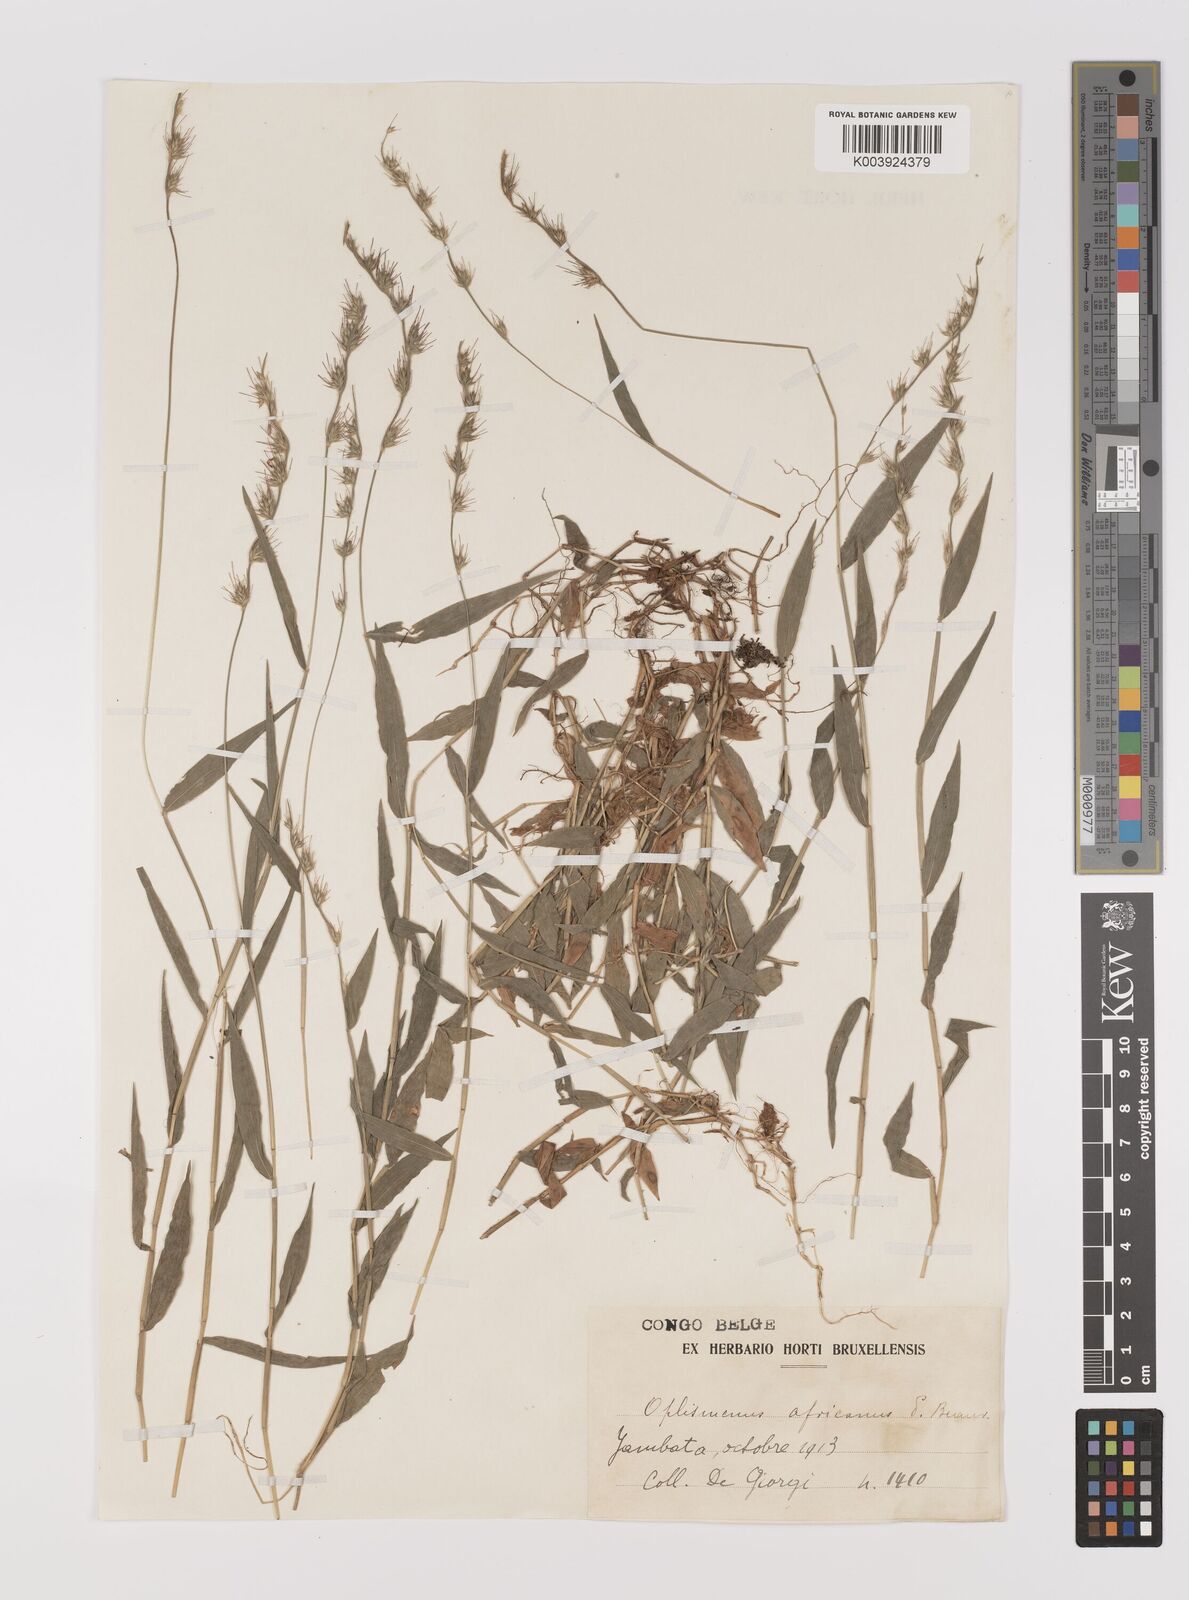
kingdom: Plantae
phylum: Tracheophyta
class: Liliopsida
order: Poales
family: Poaceae
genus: Oplismenus
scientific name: Oplismenus hirtellus
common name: Basketgrass
